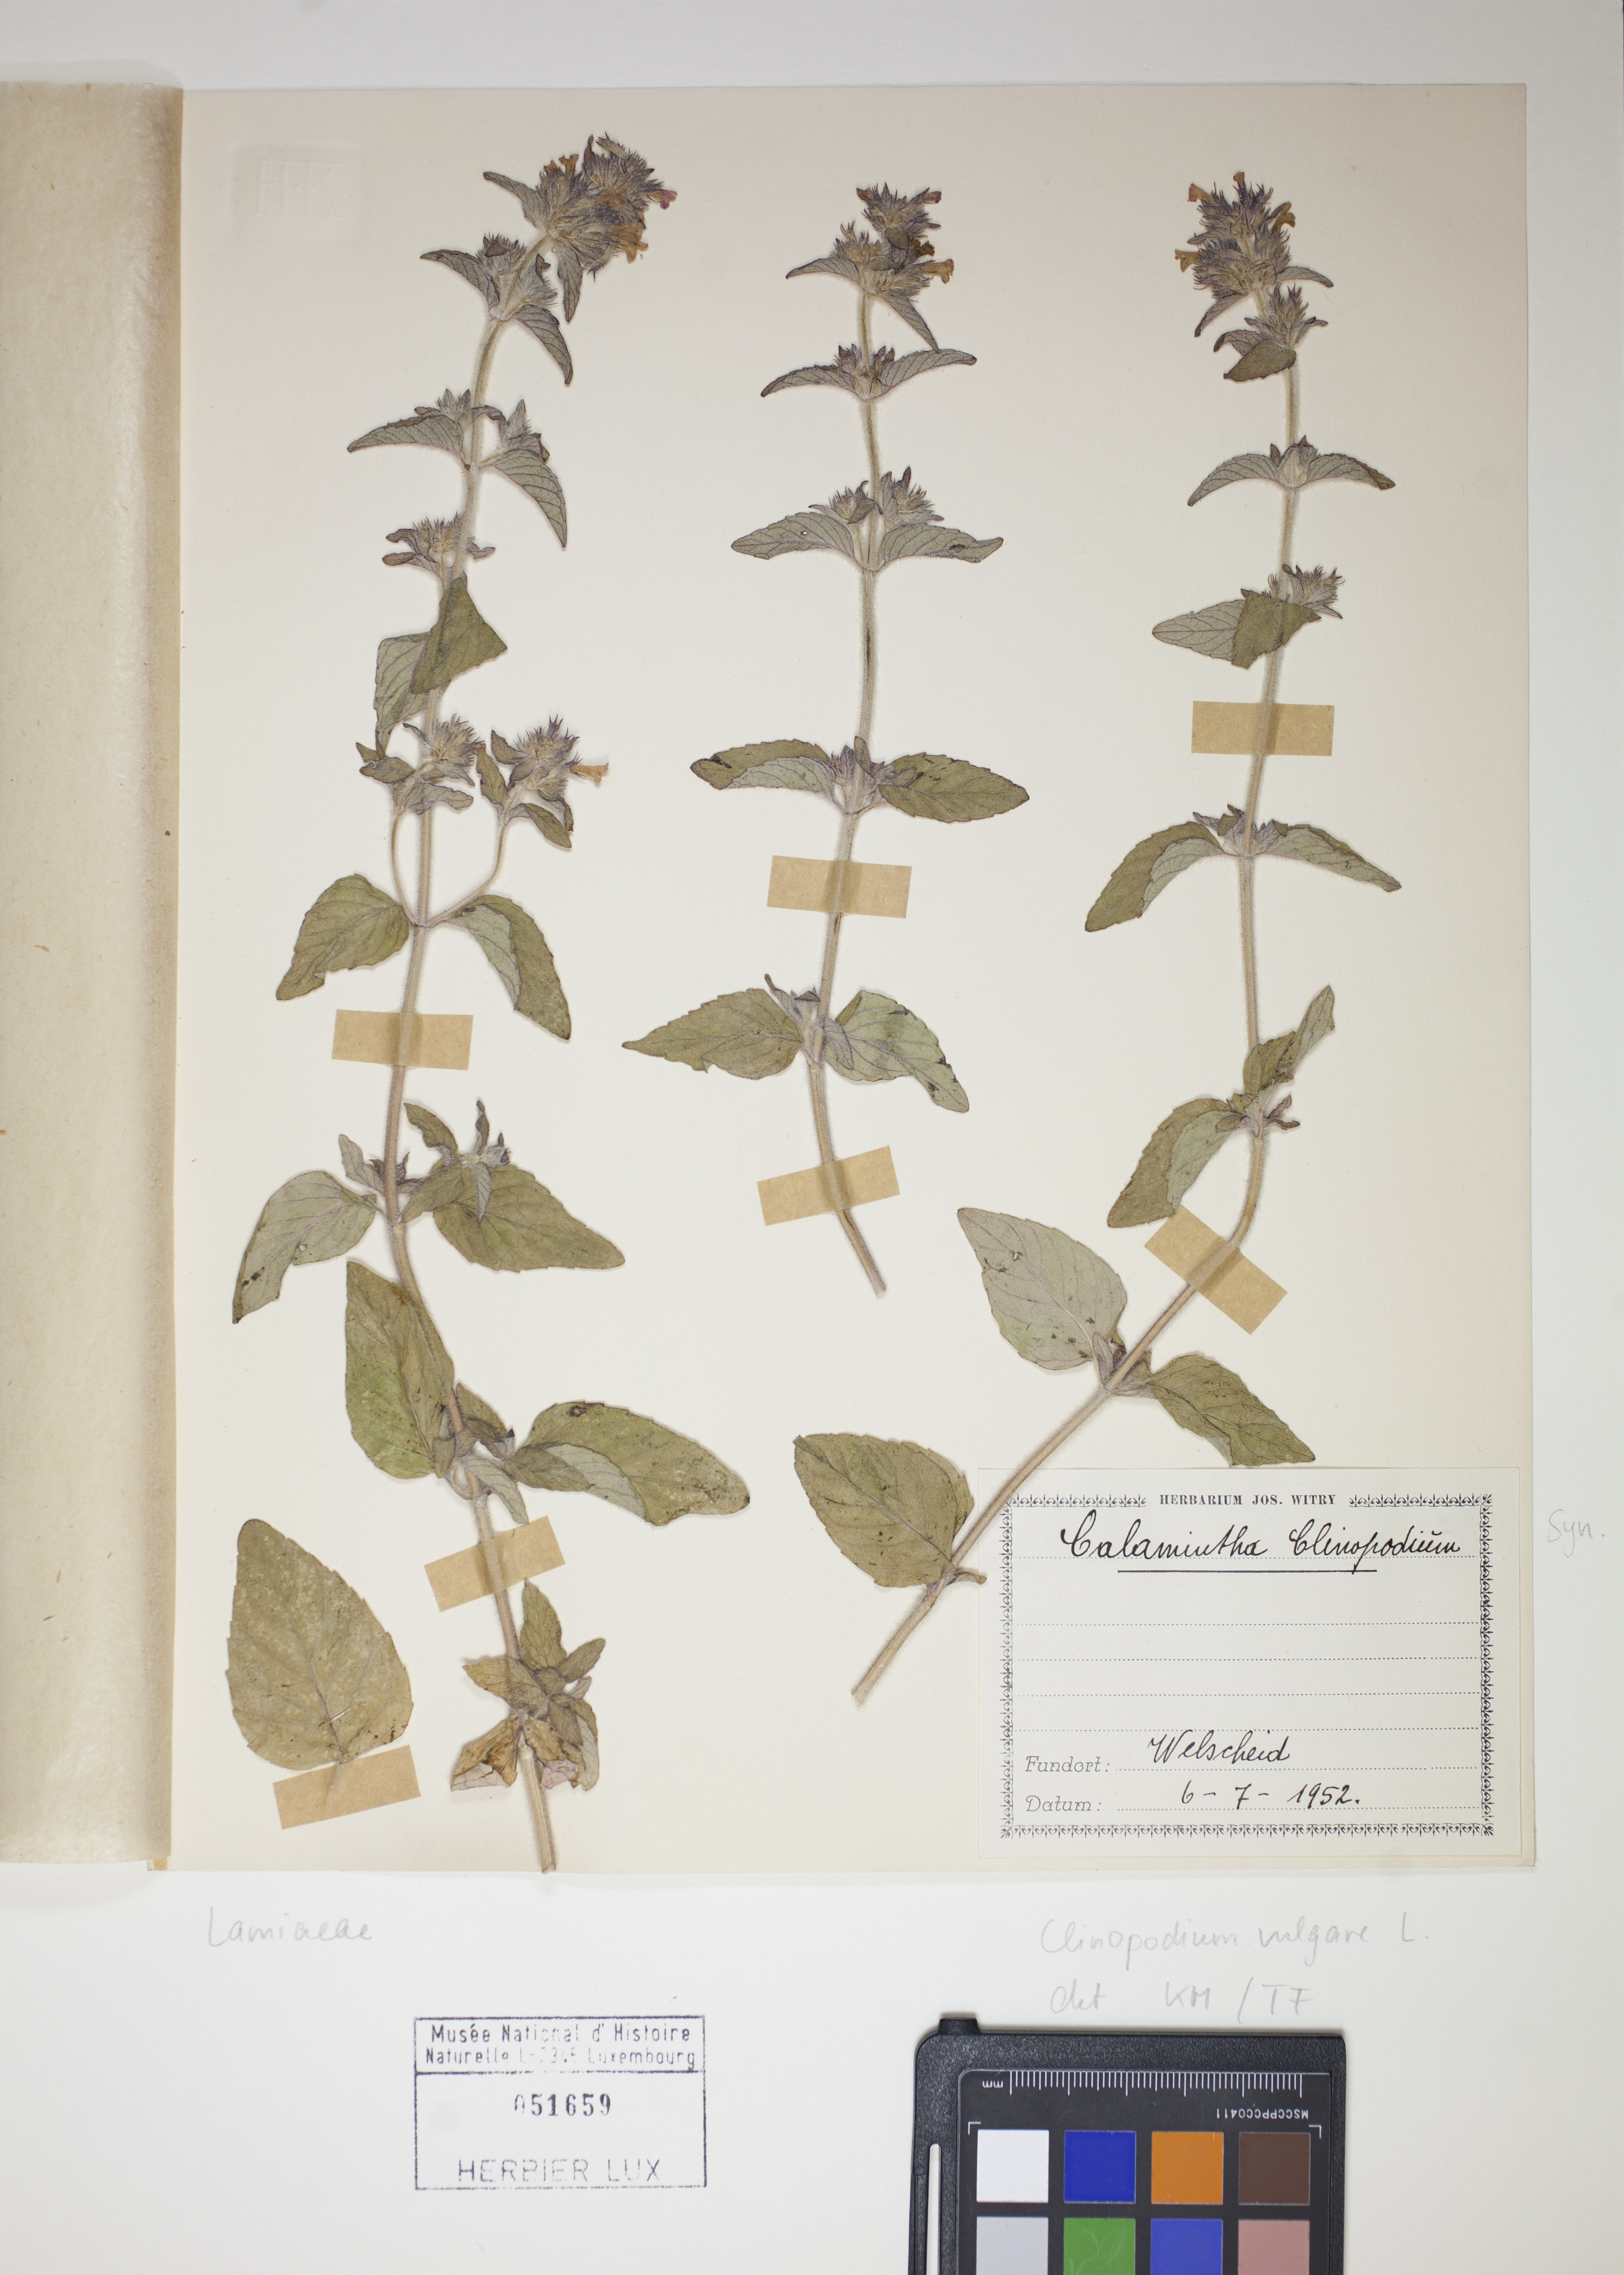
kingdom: Plantae
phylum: Tracheophyta
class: Magnoliopsida
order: Lamiales
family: Lamiaceae
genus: Clinopodium
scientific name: Clinopodium vulgare
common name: Wild basil
